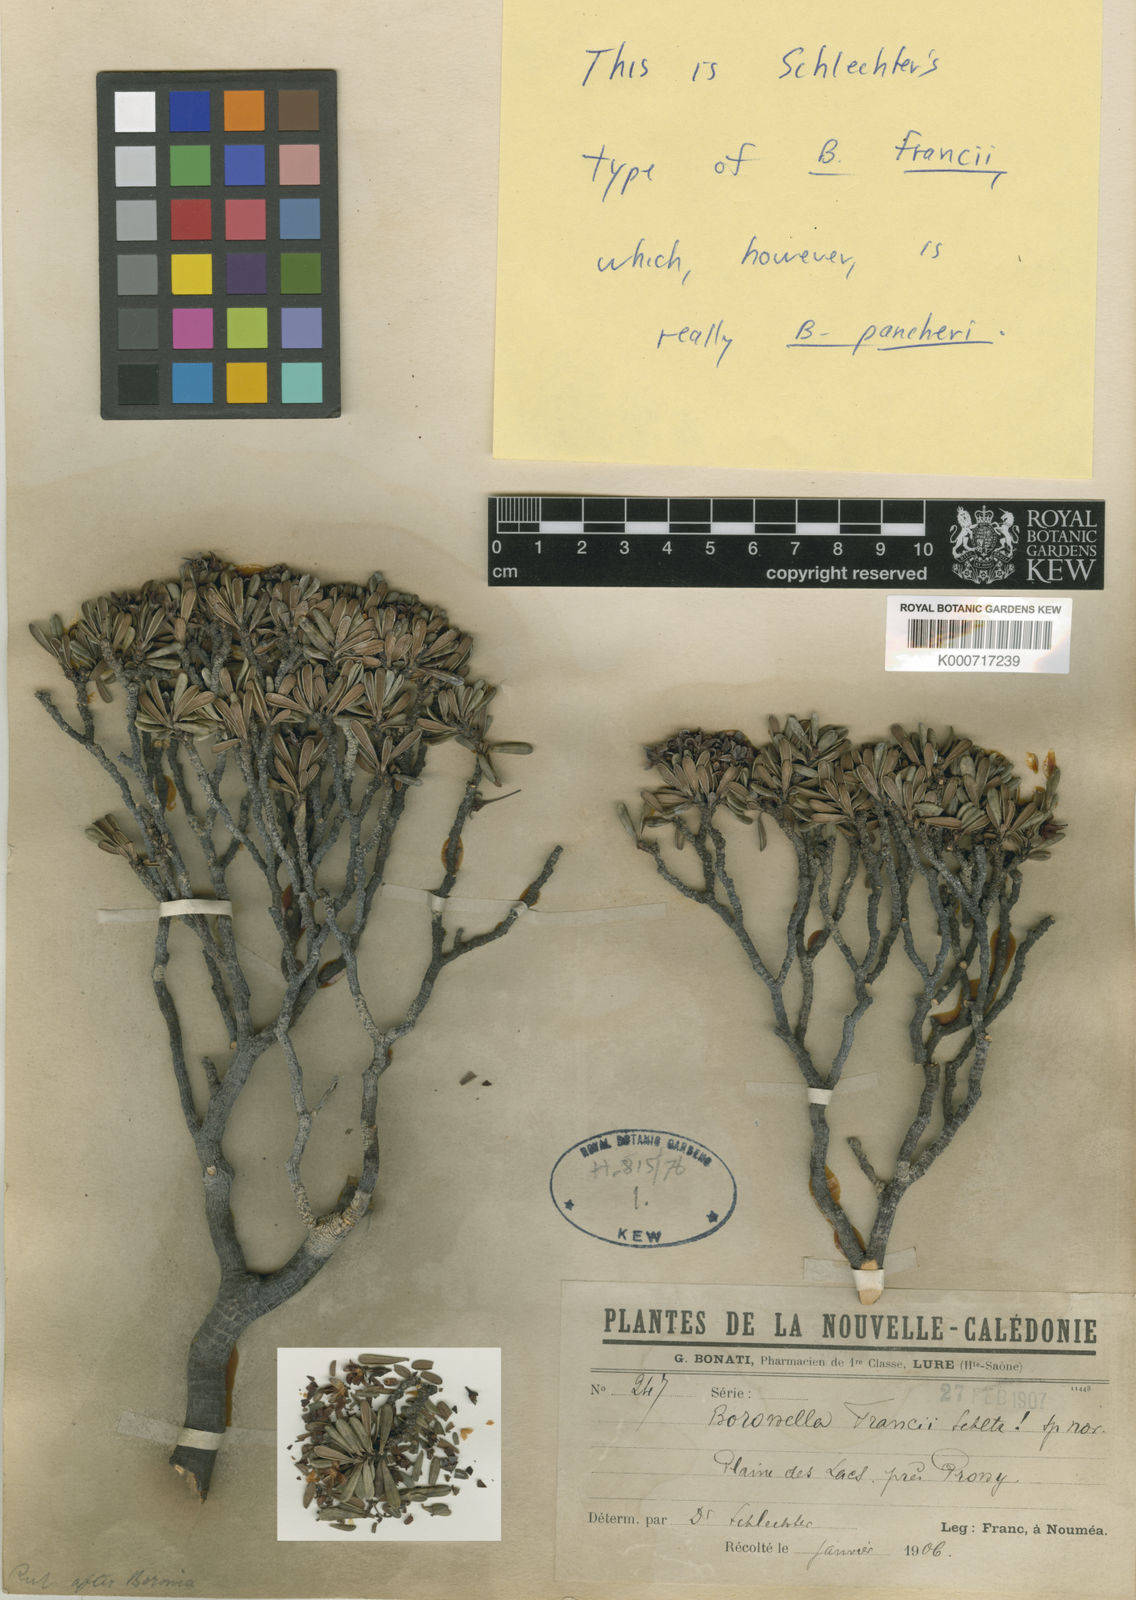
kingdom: Plantae
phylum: Tracheophyta
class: Magnoliopsida
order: Sapindales
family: Rutaceae
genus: Boronia
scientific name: Boronia pancheri
